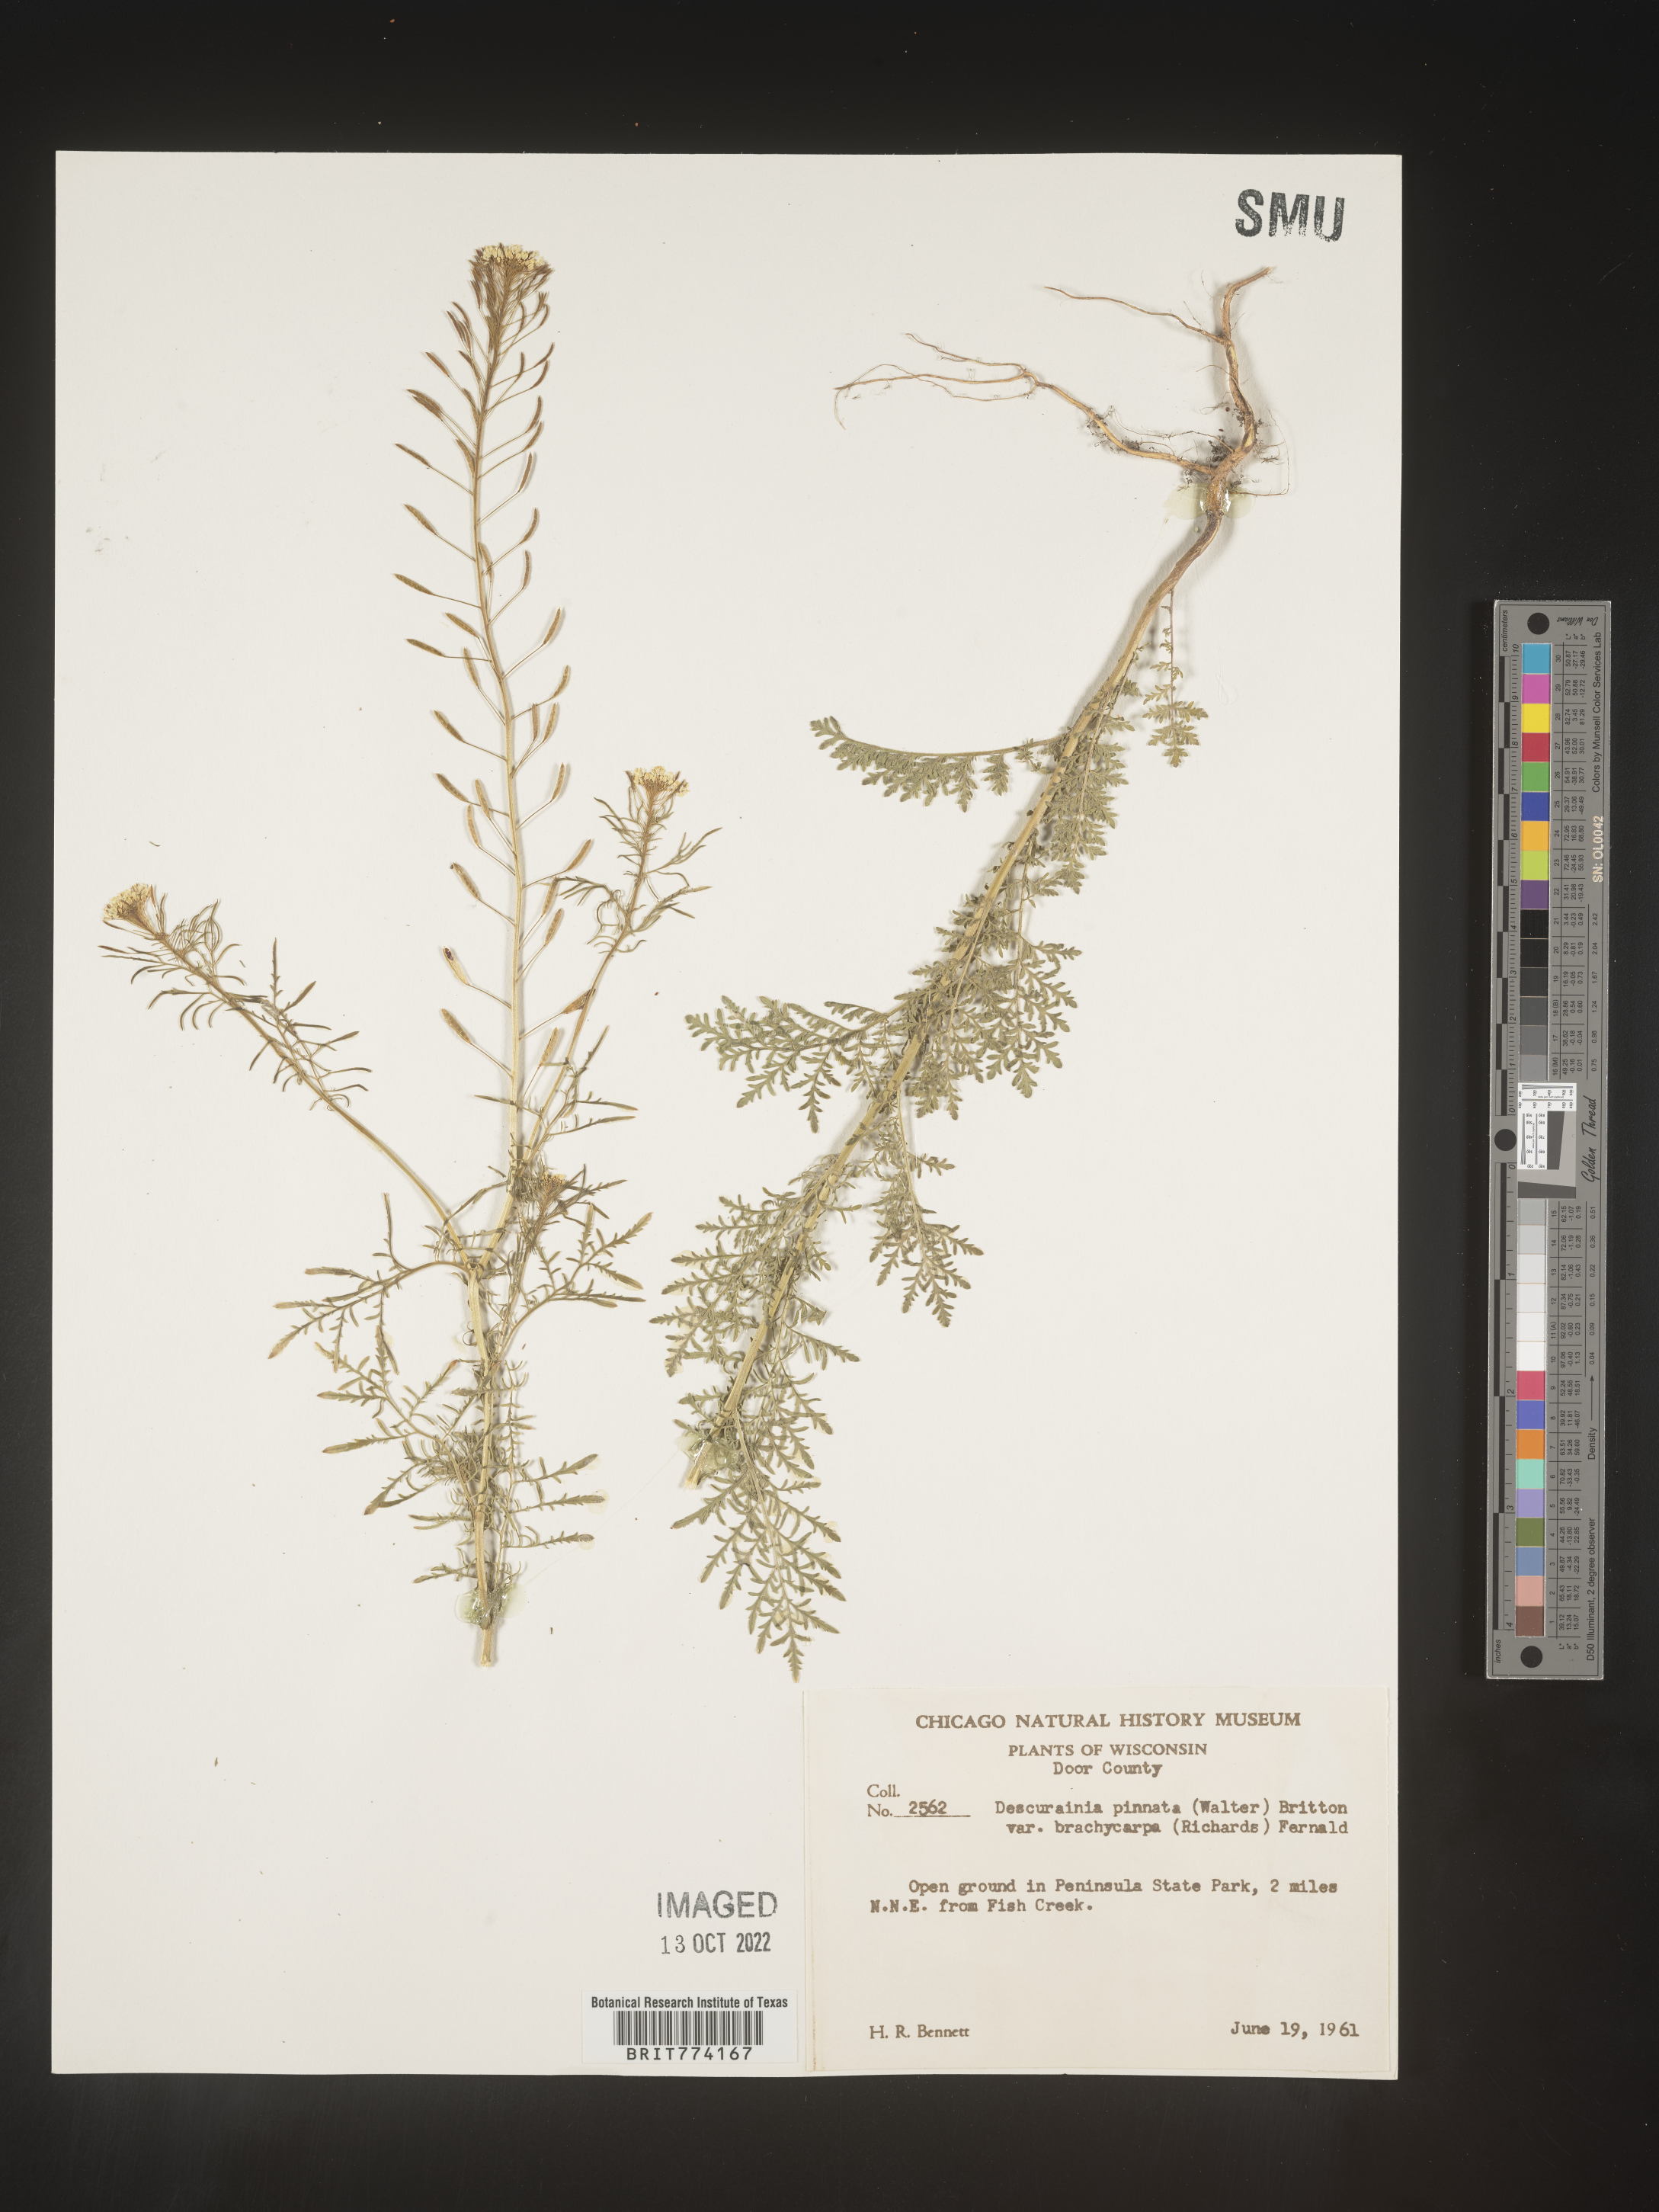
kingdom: Plantae
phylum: Tracheophyta
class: Magnoliopsida
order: Brassicales
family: Brassicaceae
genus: Descurainia
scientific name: Descurainia pinnata
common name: Western tansy mustard
